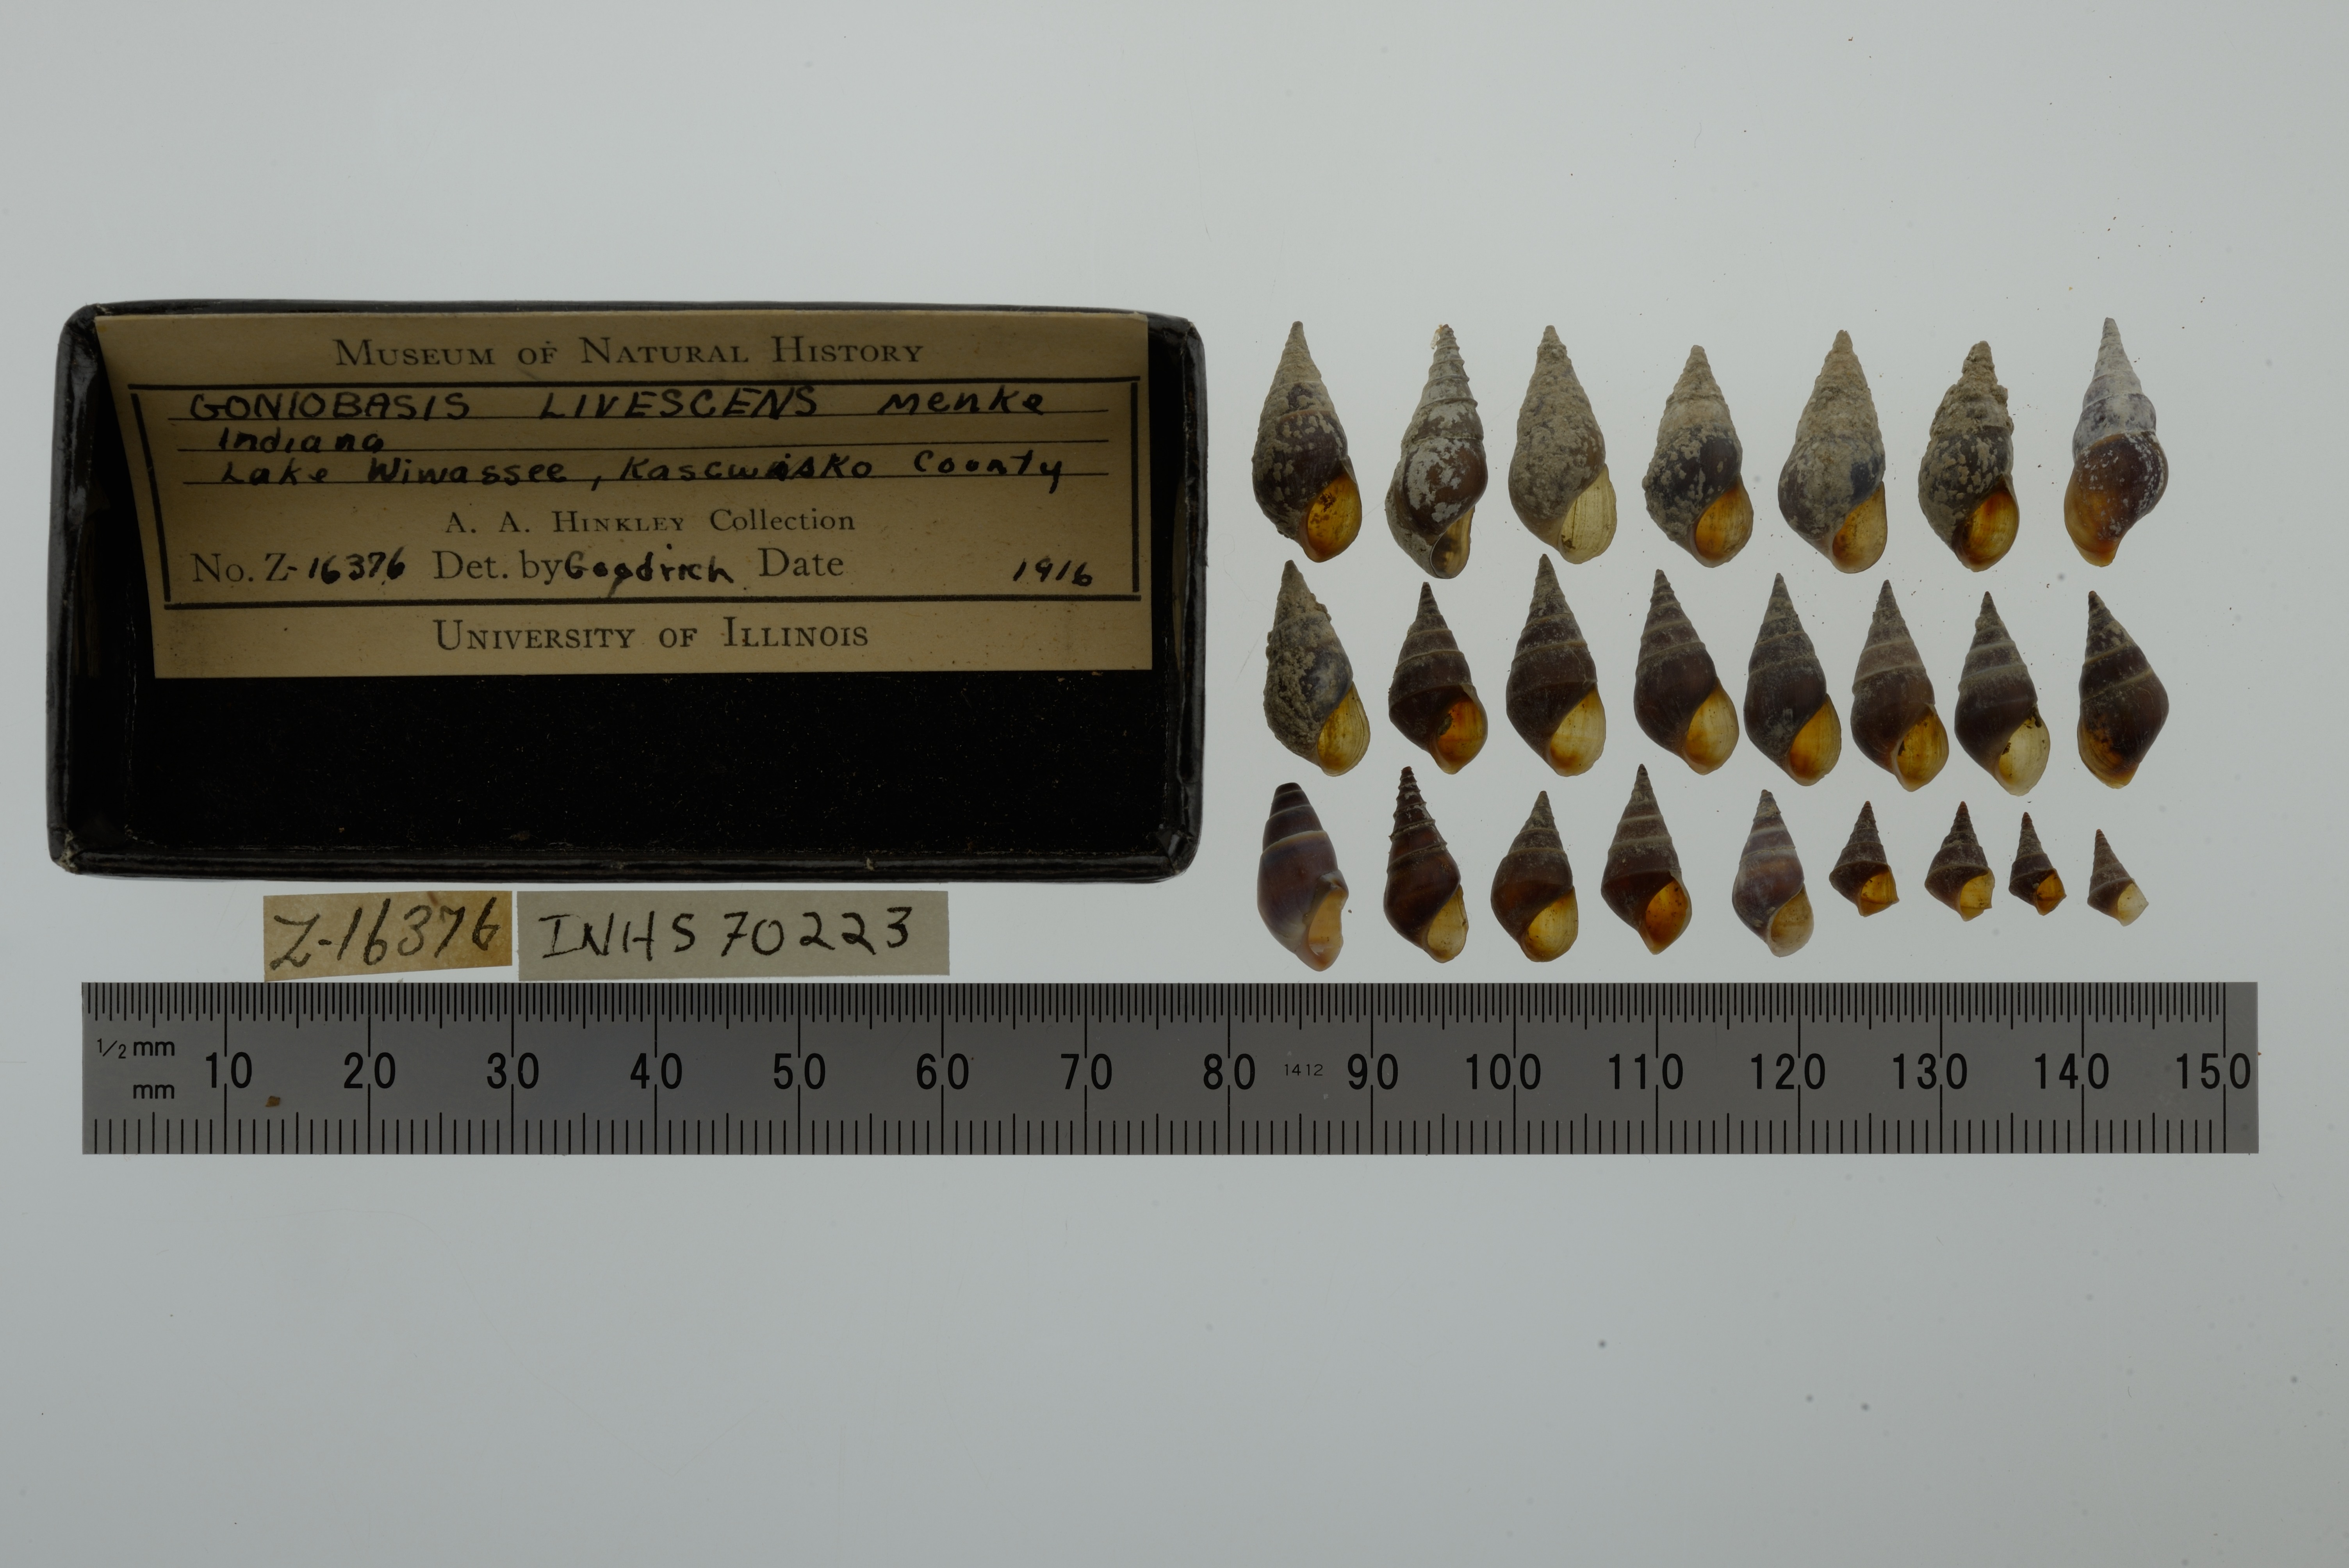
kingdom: Animalia
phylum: Mollusca
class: Gastropoda
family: Pleuroceridae
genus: Elimia
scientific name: Elimia livescens
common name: Liver elimia
